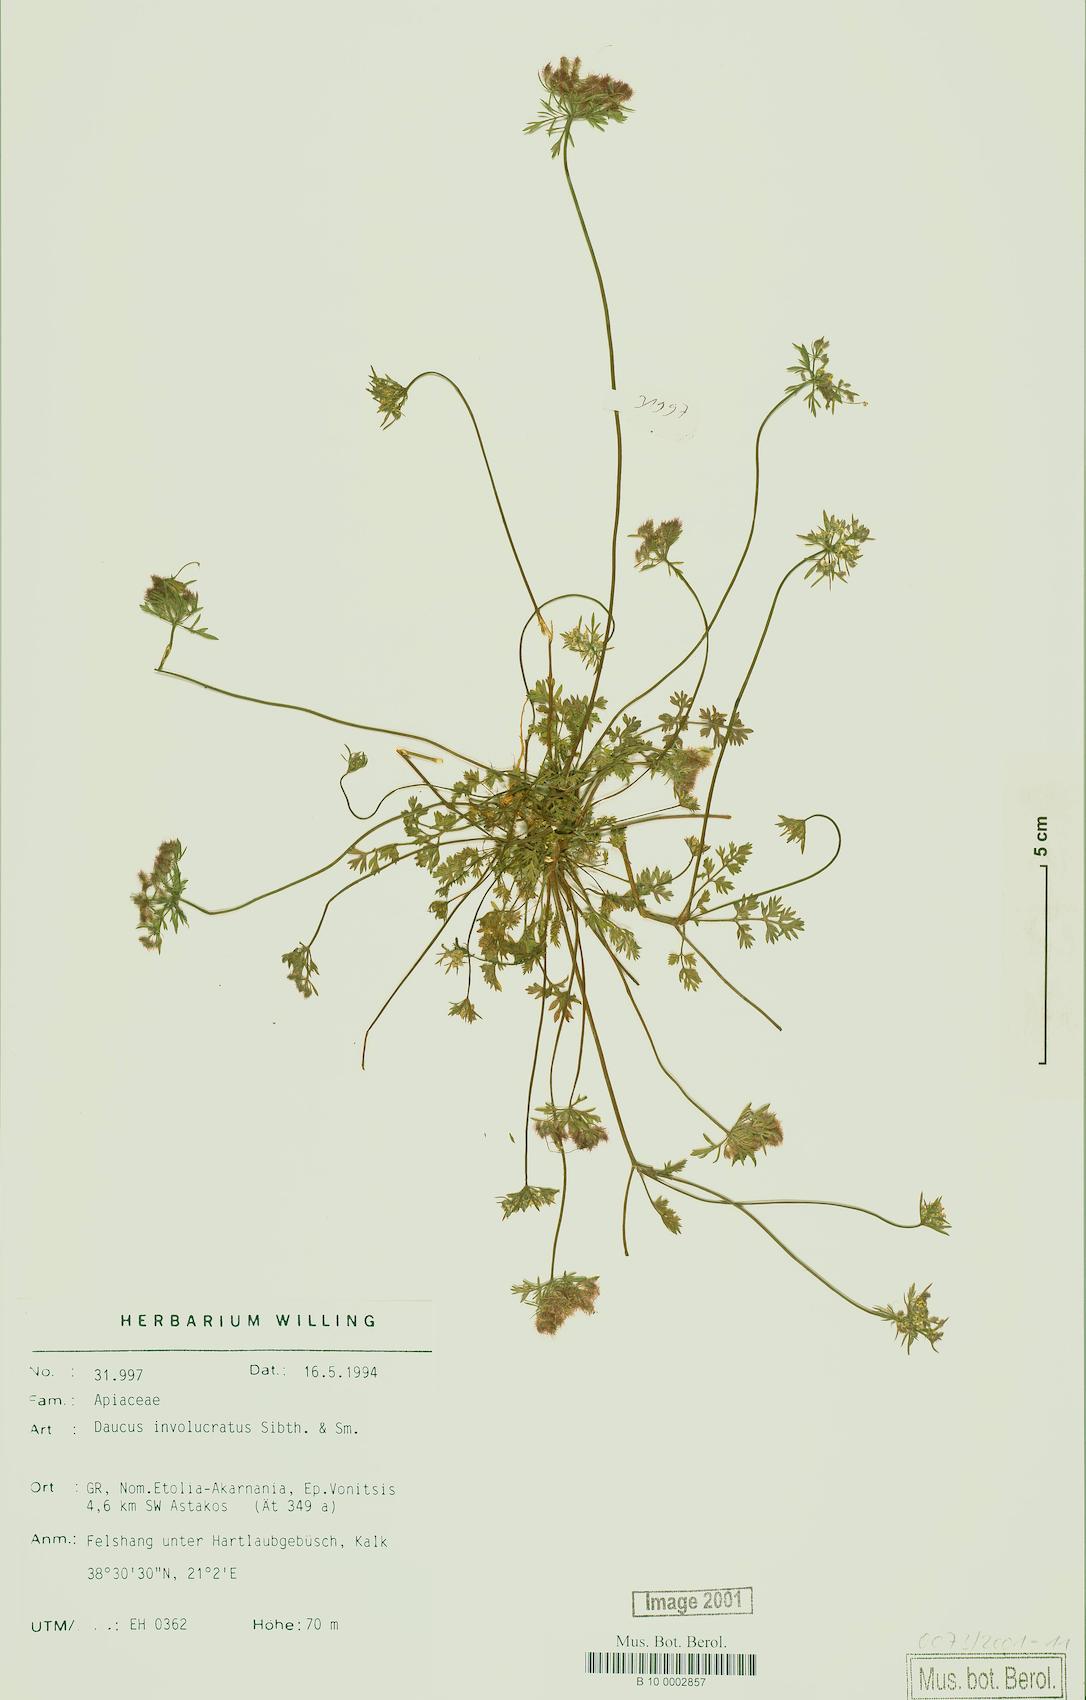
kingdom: Plantae
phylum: Tracheophyta
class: Magnoliopsida
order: Apiales
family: Apiaceae
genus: Daucus
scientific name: Daucus involucratus
